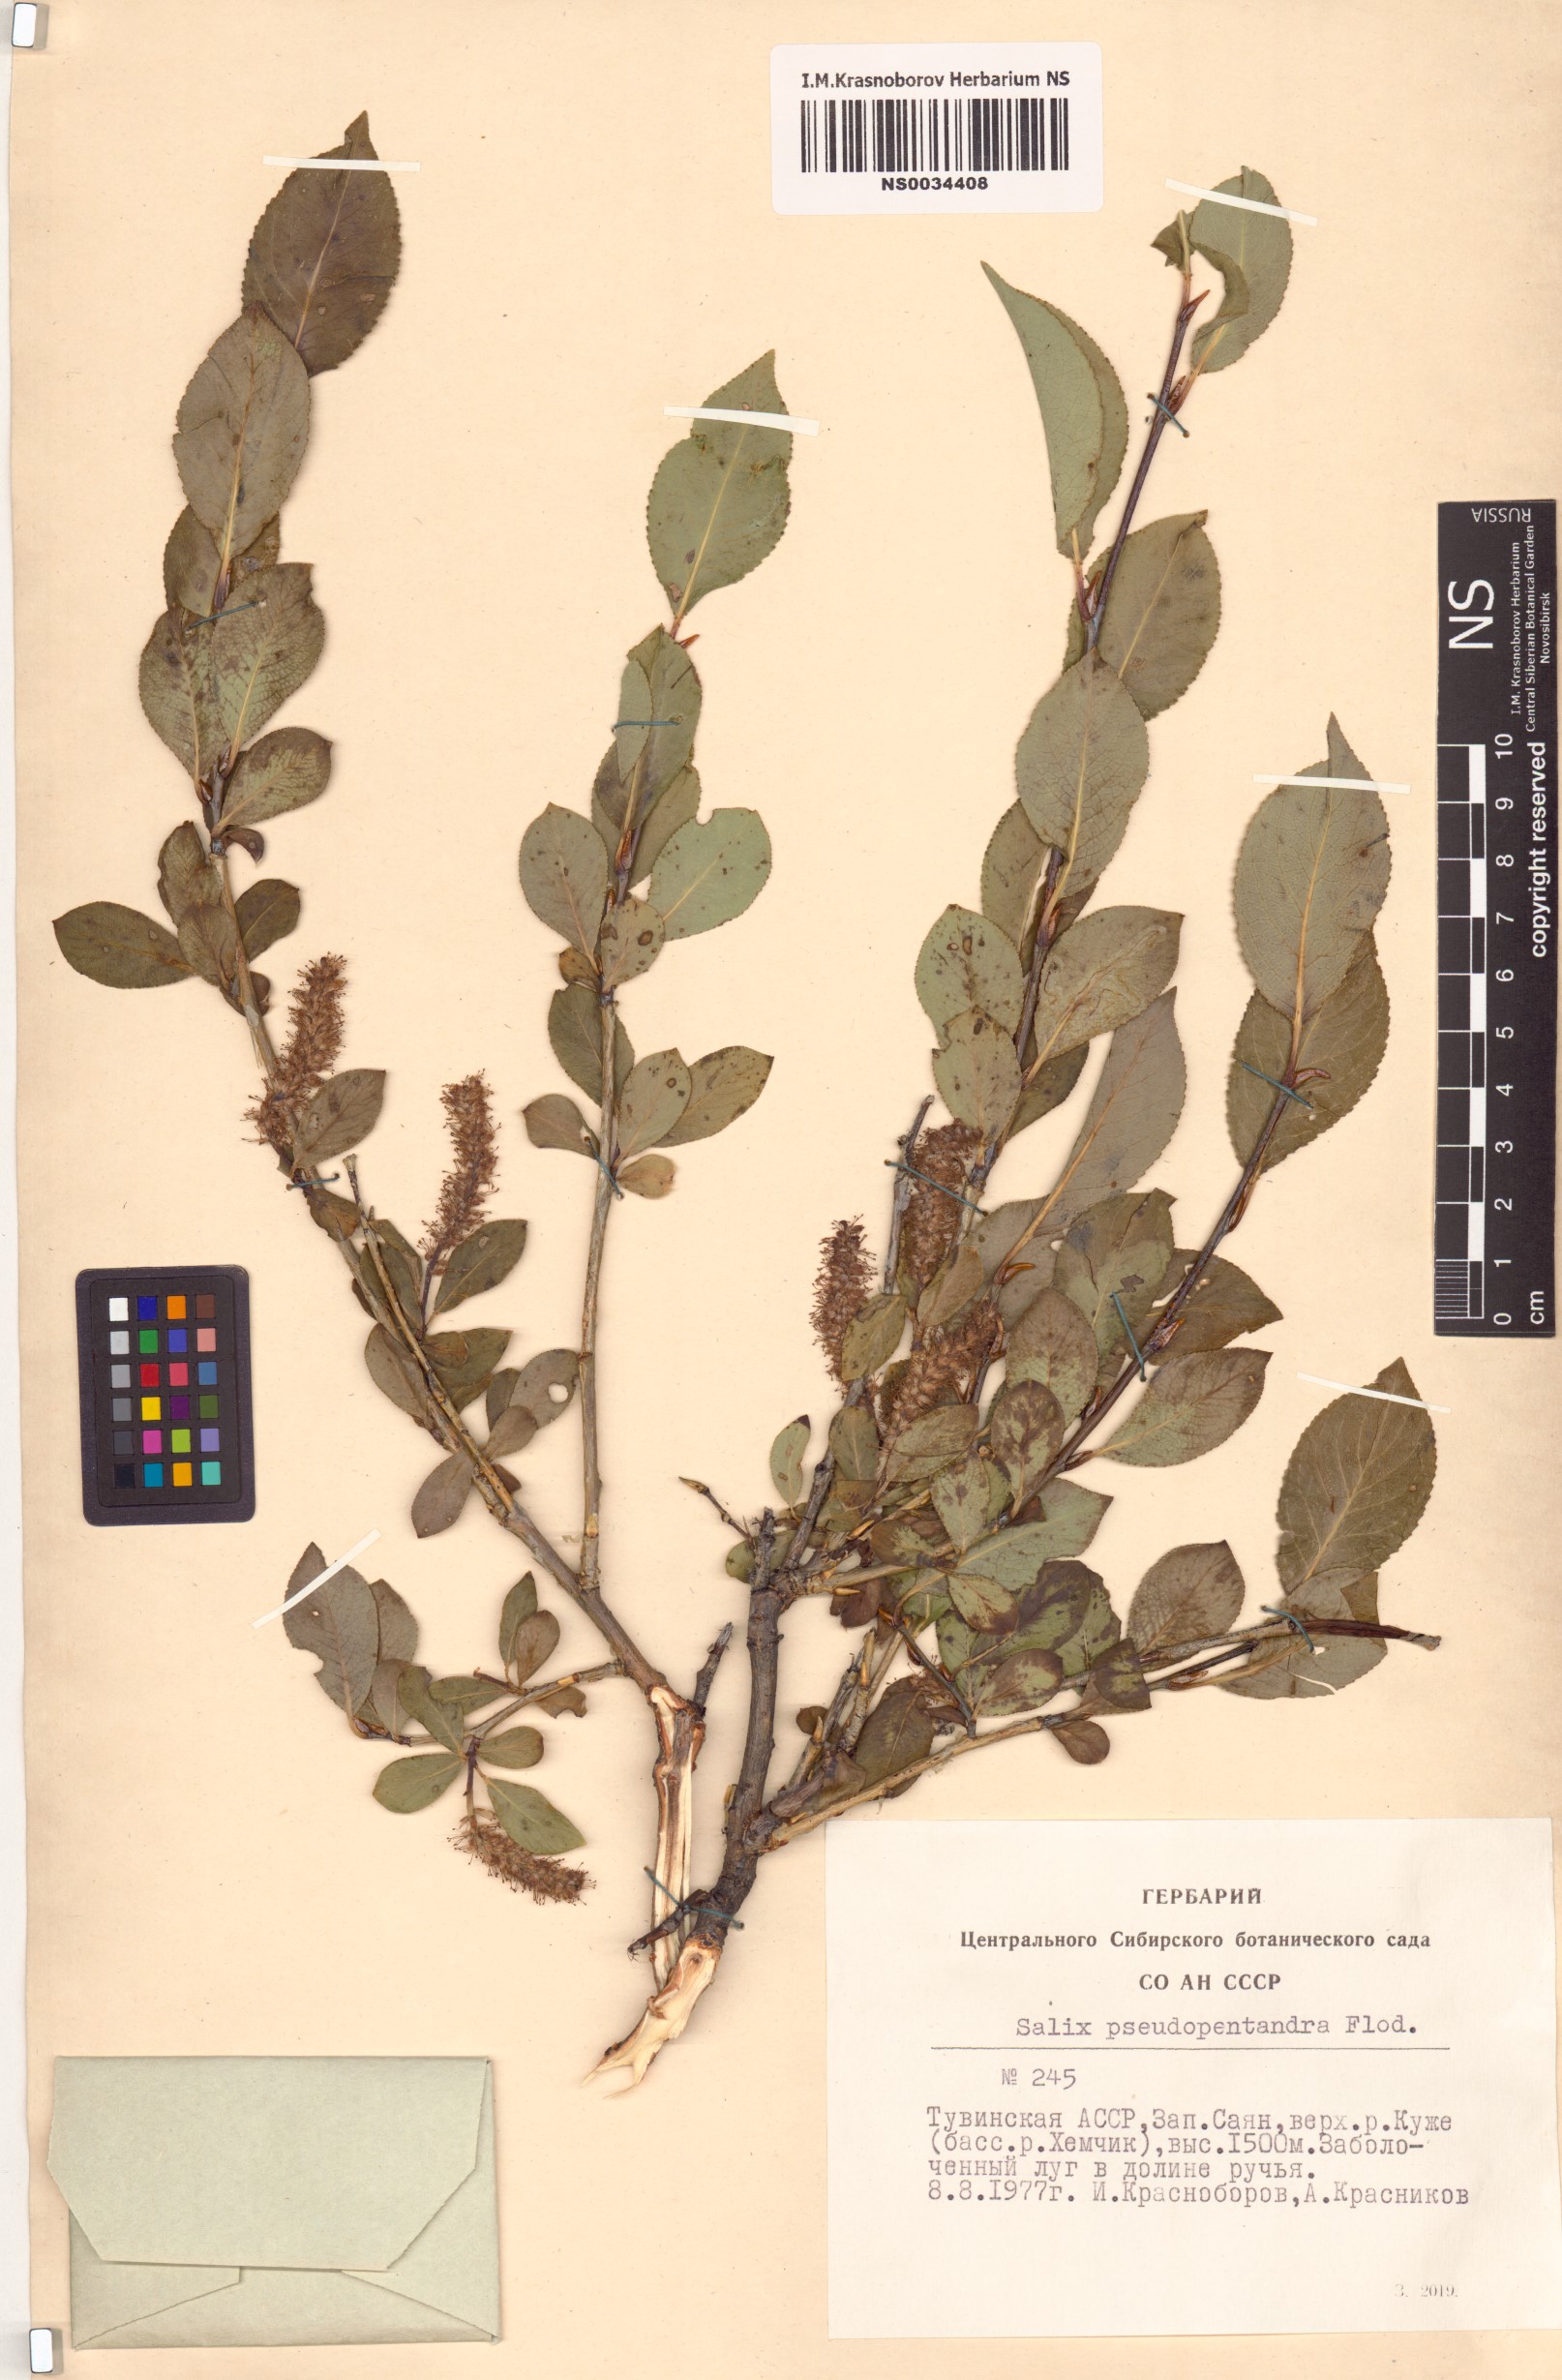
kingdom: Plantae
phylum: Tracheophyta
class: Magnoliopsida
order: Malpighiales
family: Salicaceae
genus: Salix
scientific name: Salix pseudopentandra
